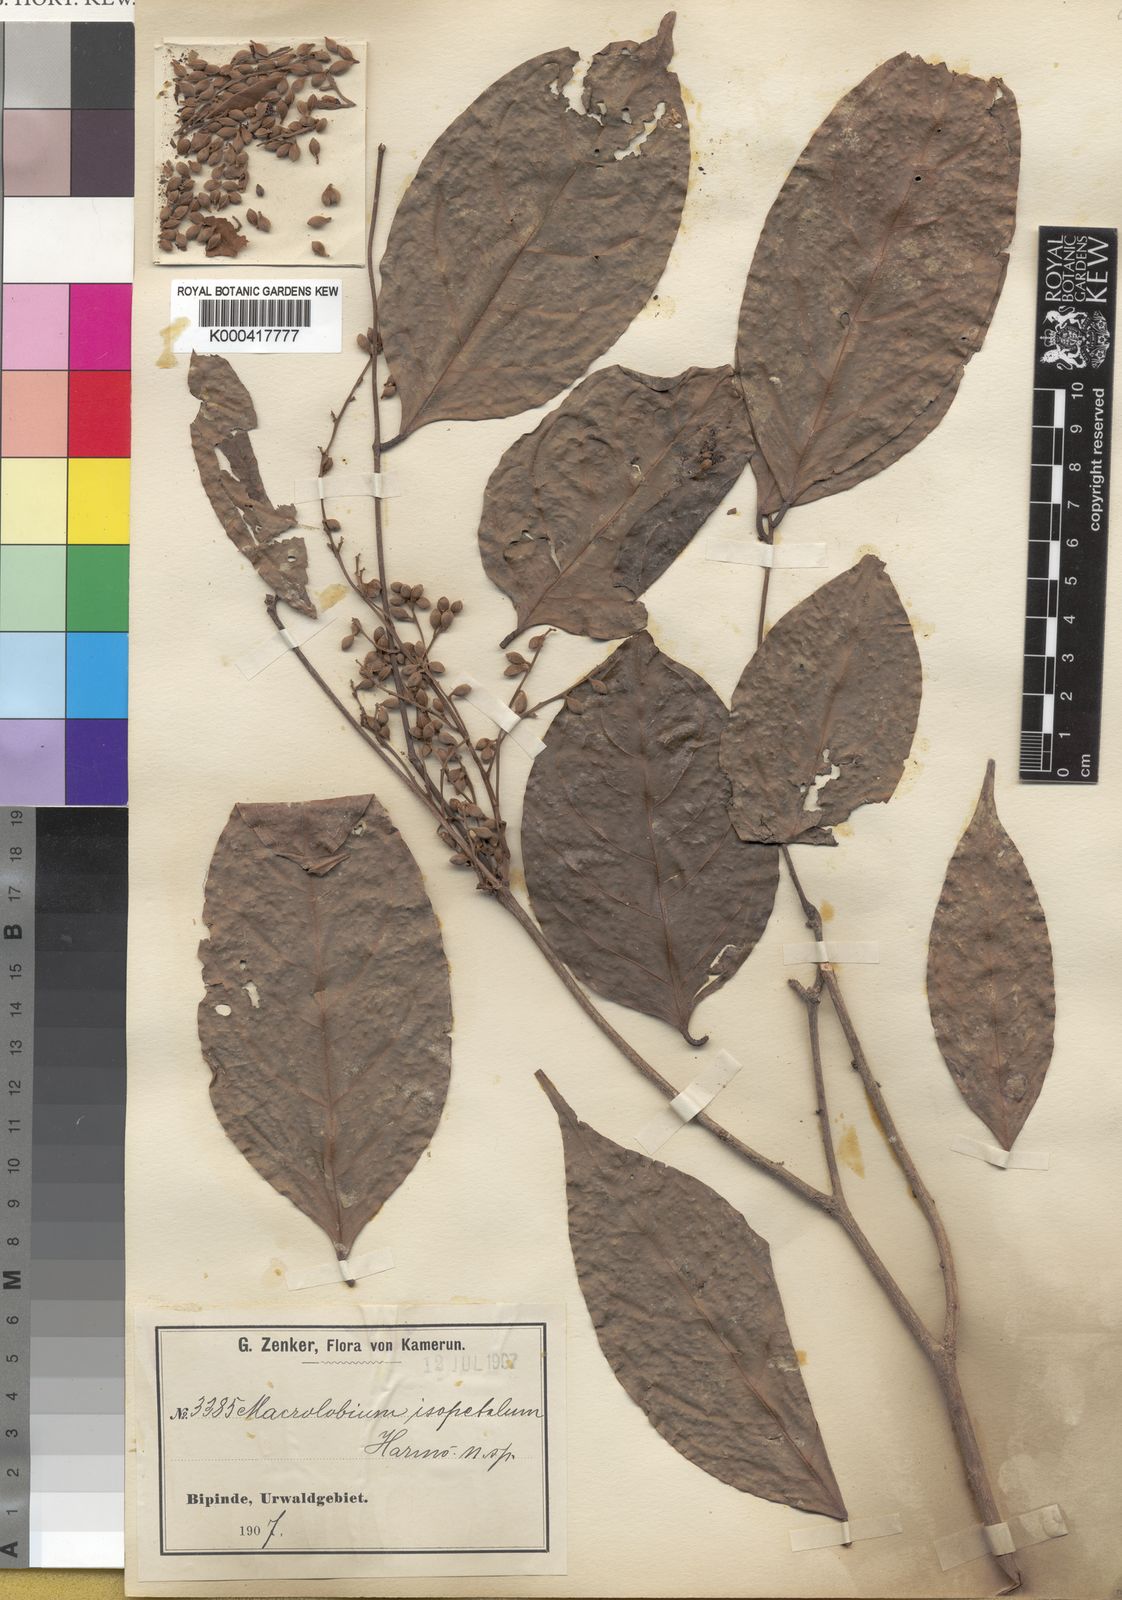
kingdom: Plantae
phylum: Tracheophyta
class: Magnoliopsida
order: Fabales
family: Fabaceae
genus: Englerodendron
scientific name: Englerodendron isopetalum
